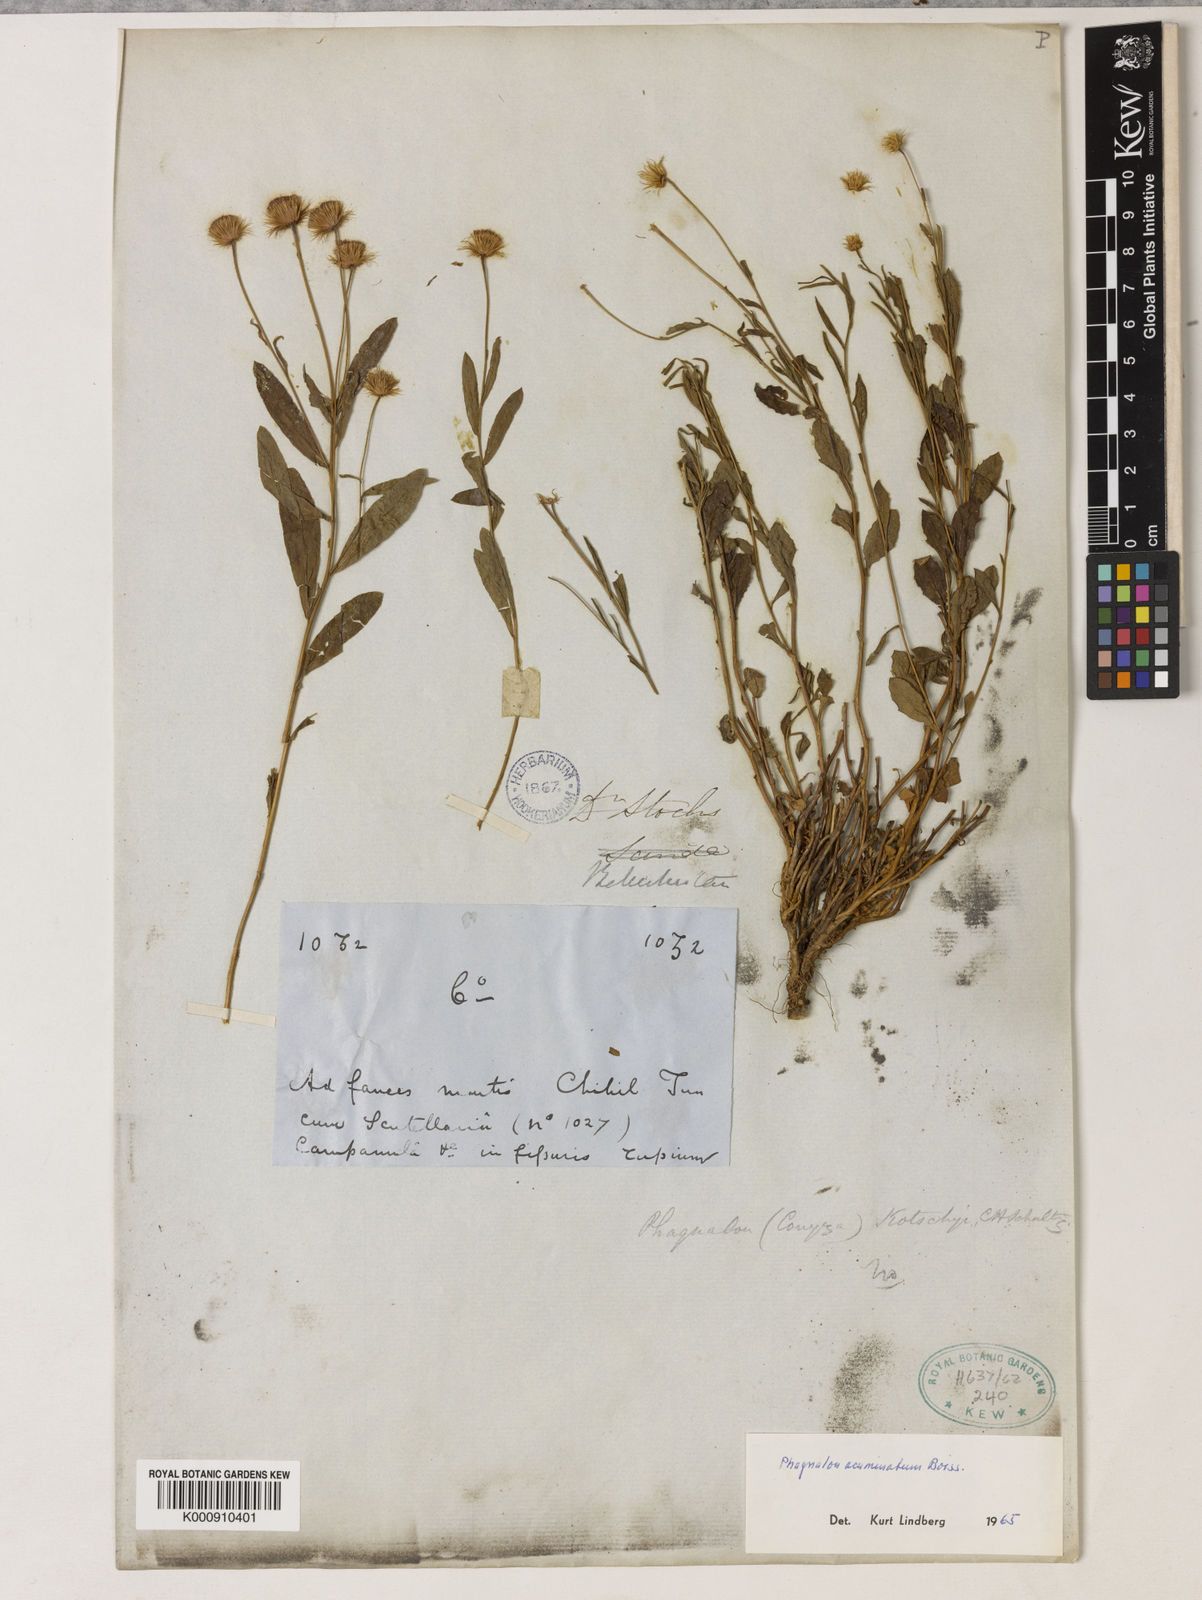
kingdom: Plantae
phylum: Tracheophyta
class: Magnoliopsida
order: Asterales
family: Asteraceae
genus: Phagnalon
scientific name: Phagnalon acuminatum
